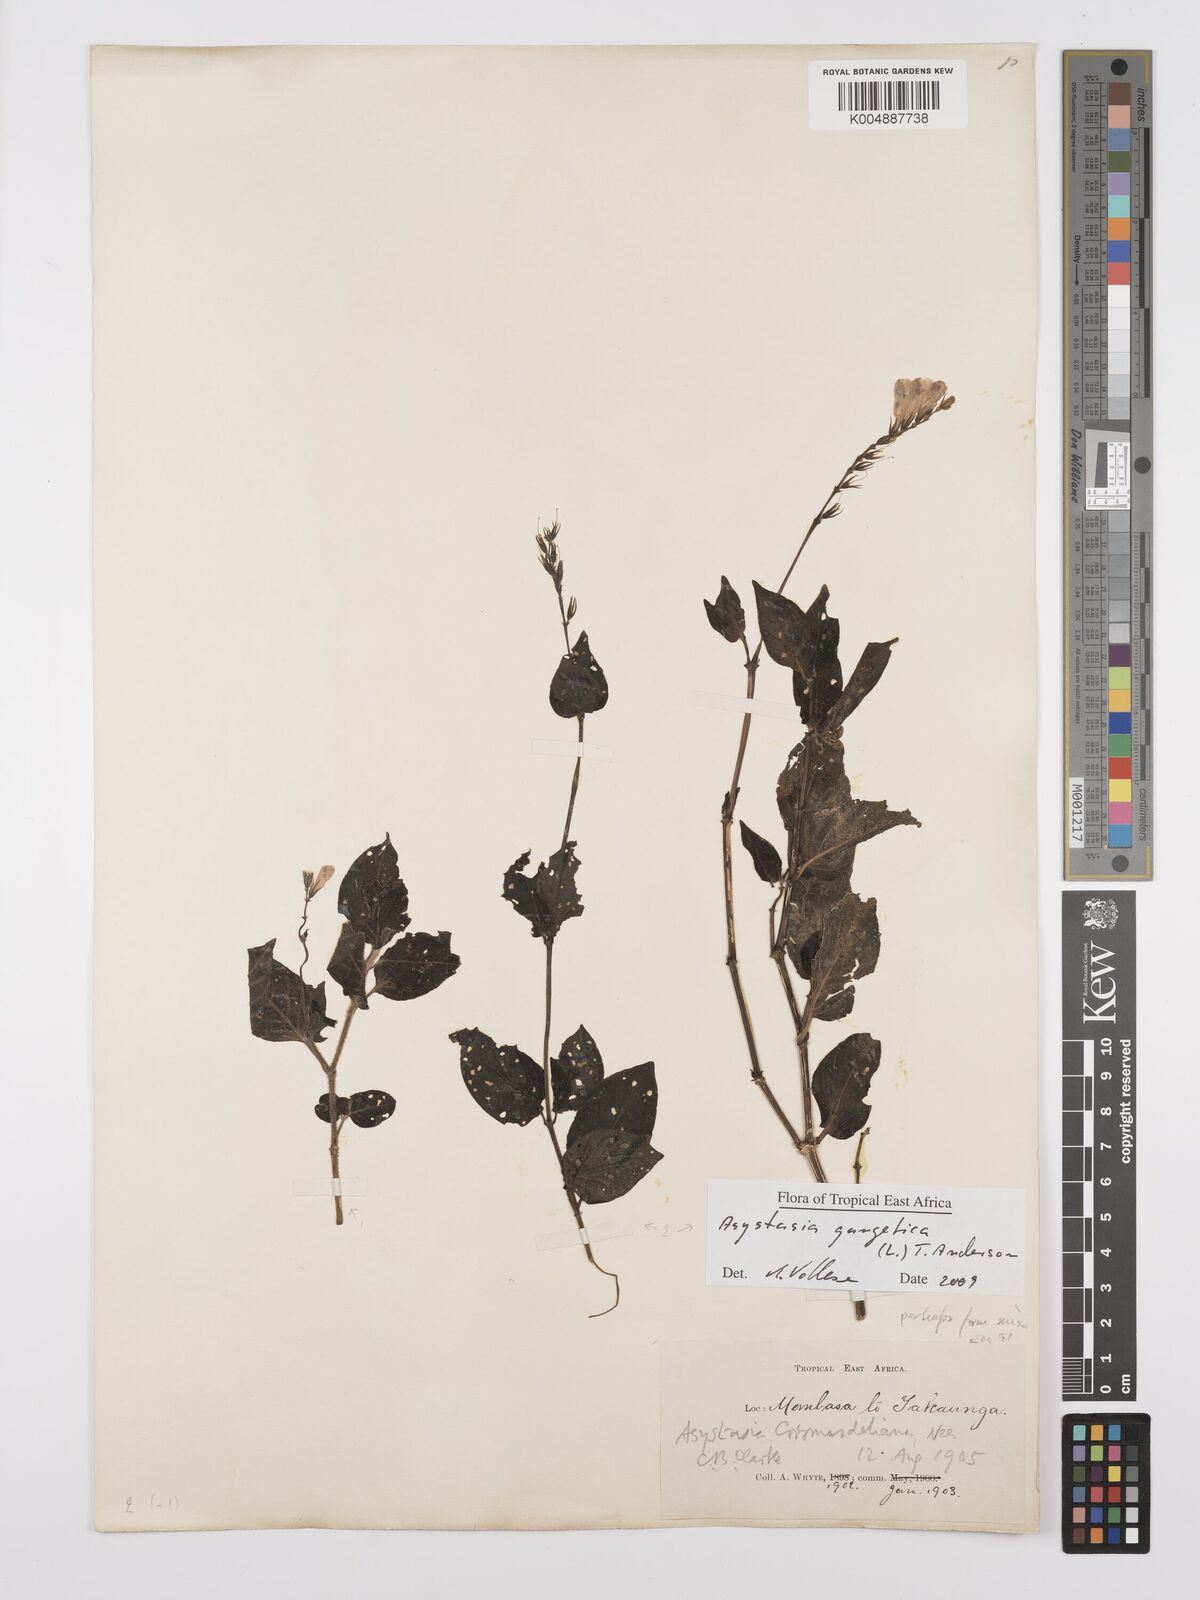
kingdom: Plantae
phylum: Tracheophyta
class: Magnoliopsida
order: Lamiales
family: Acanthaceae
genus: Asystasia
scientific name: Asystasia gangetica
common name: Chinese violet
